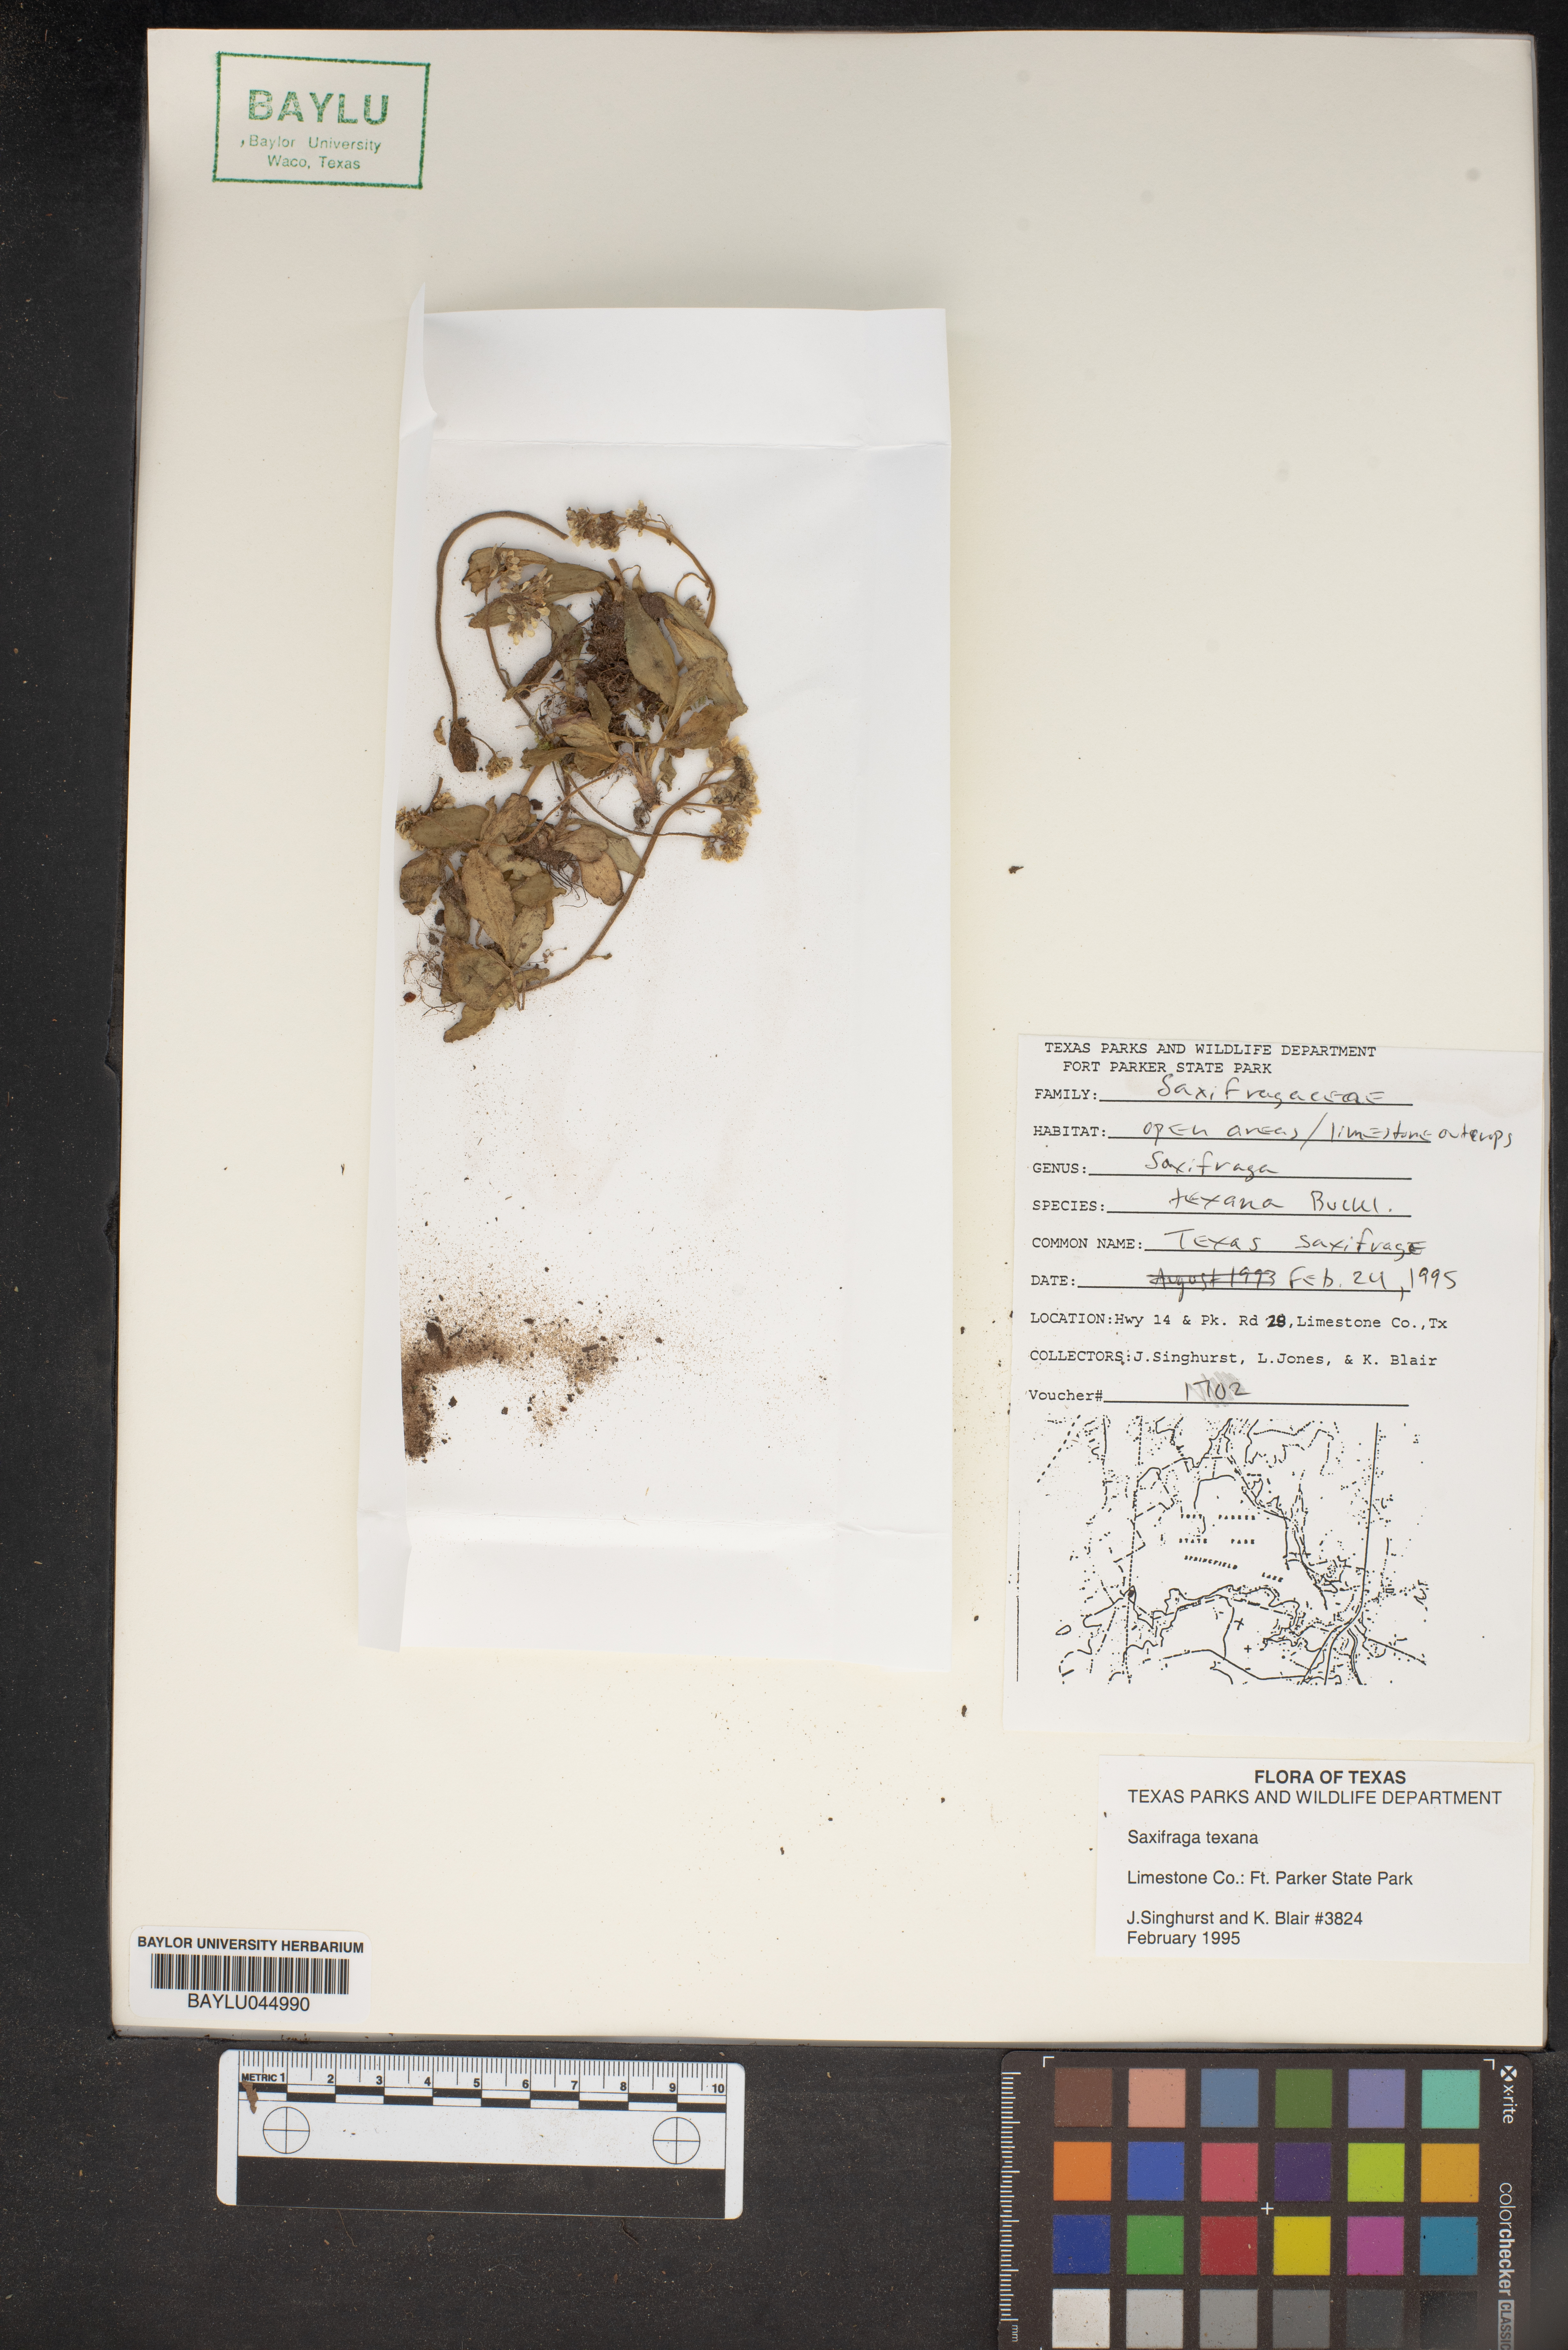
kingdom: Plantae
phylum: Tracheophyta
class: Magnoliopsida
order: Saxifragales
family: Saxifragaceae
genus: Micranthes
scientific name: Micranthes texana
